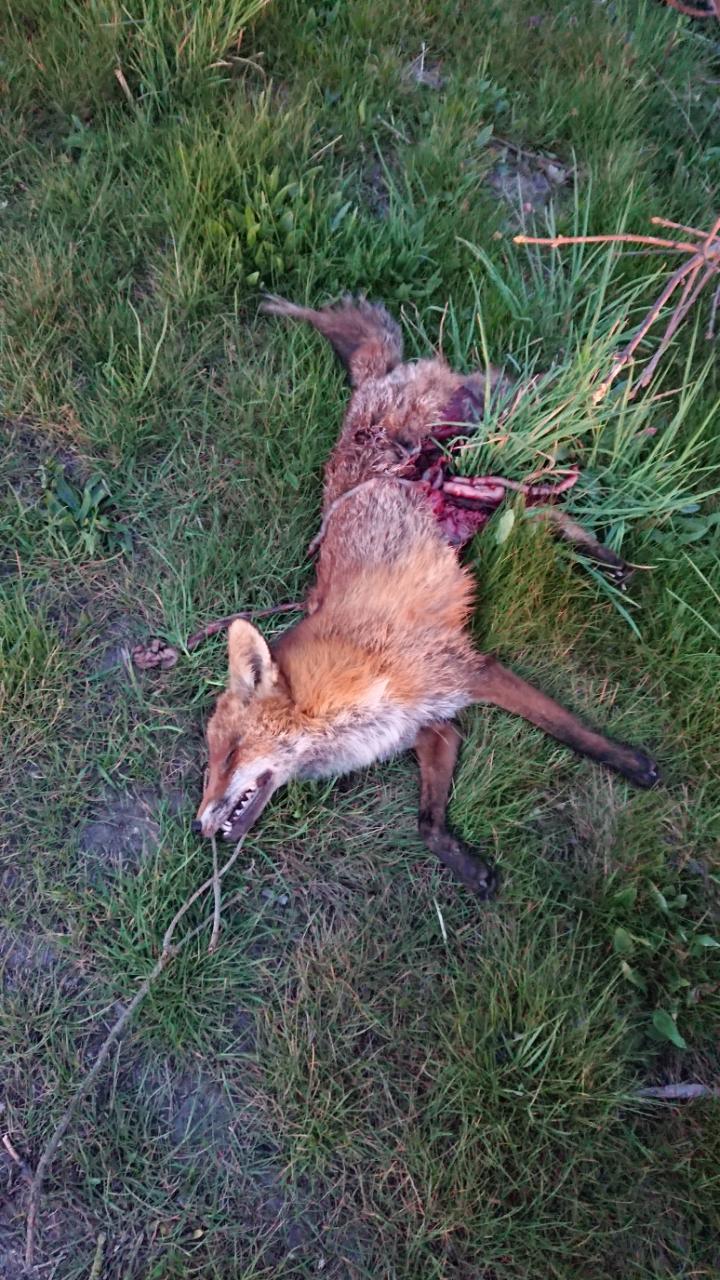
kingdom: Animalia
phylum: Chordata
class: Mammalia
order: Carnivora
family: Canidae
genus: Vulpes
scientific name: Vulpes vulpes
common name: Red fox
